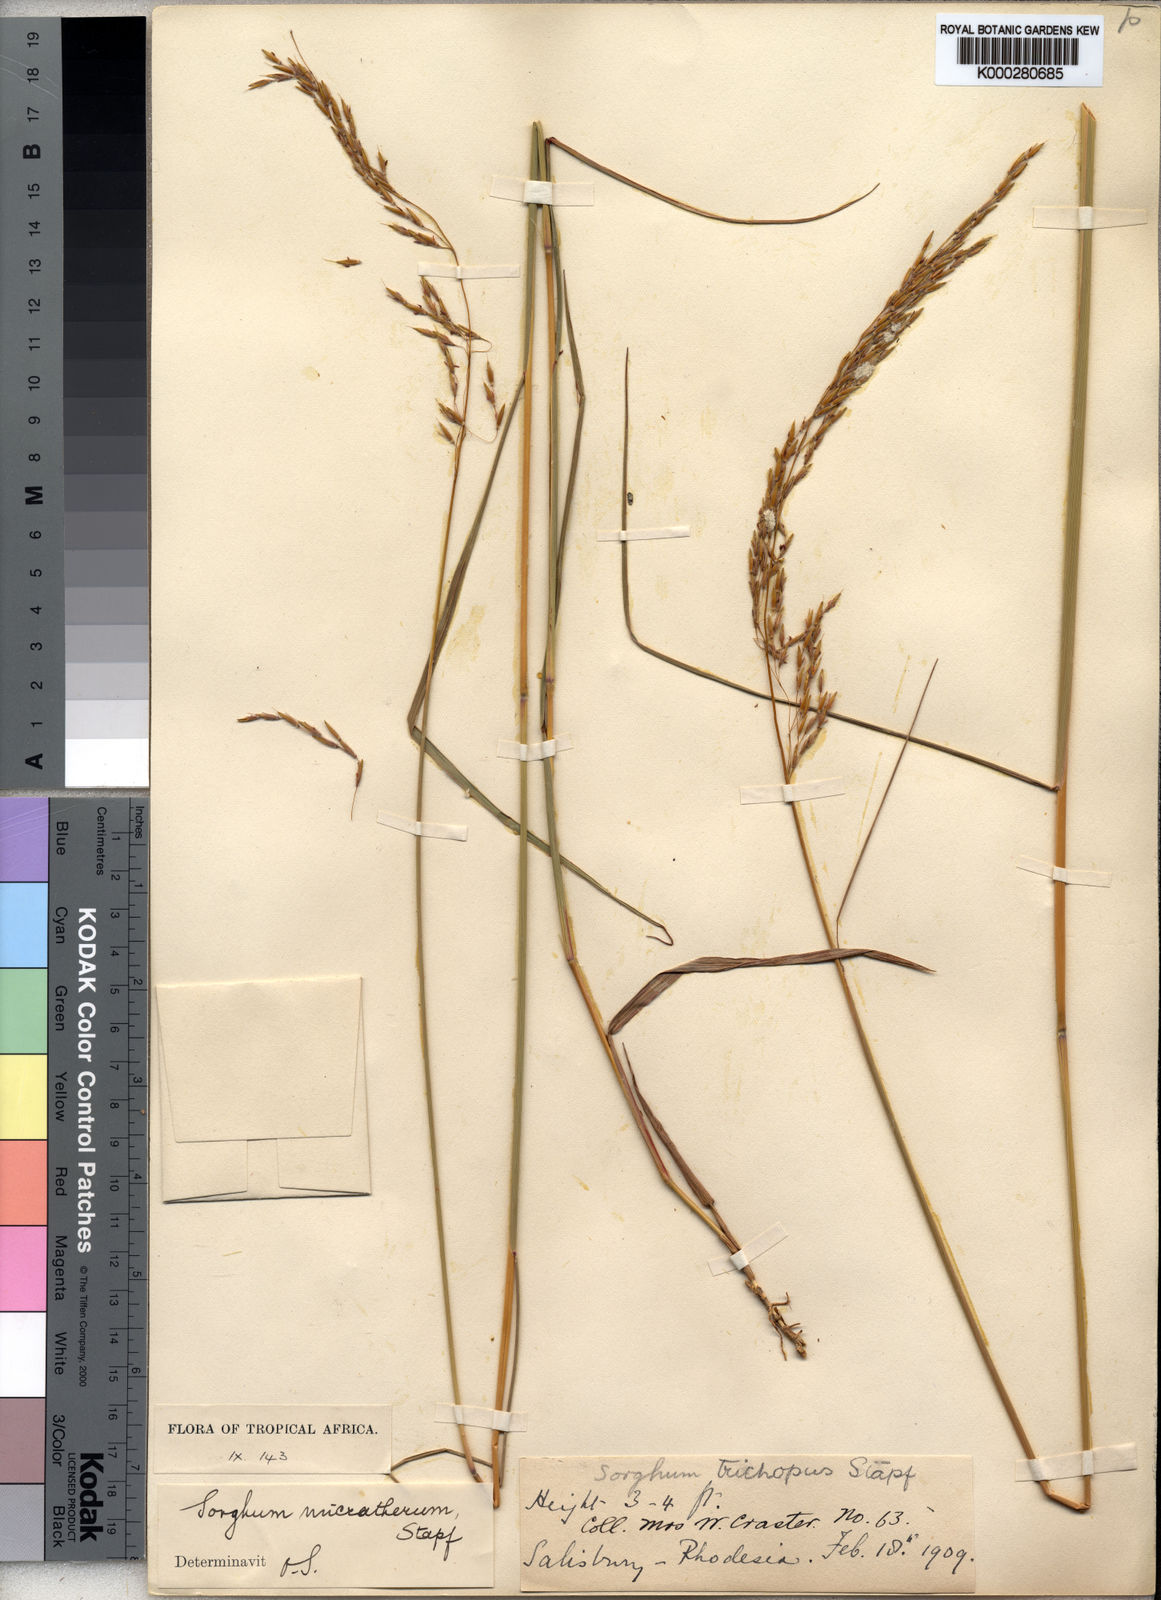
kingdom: Plantae
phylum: Tracheophyta
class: Liliopsida
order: Poales
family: Poaceae
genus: Sorghastrum
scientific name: Sorghastrum nudipes
